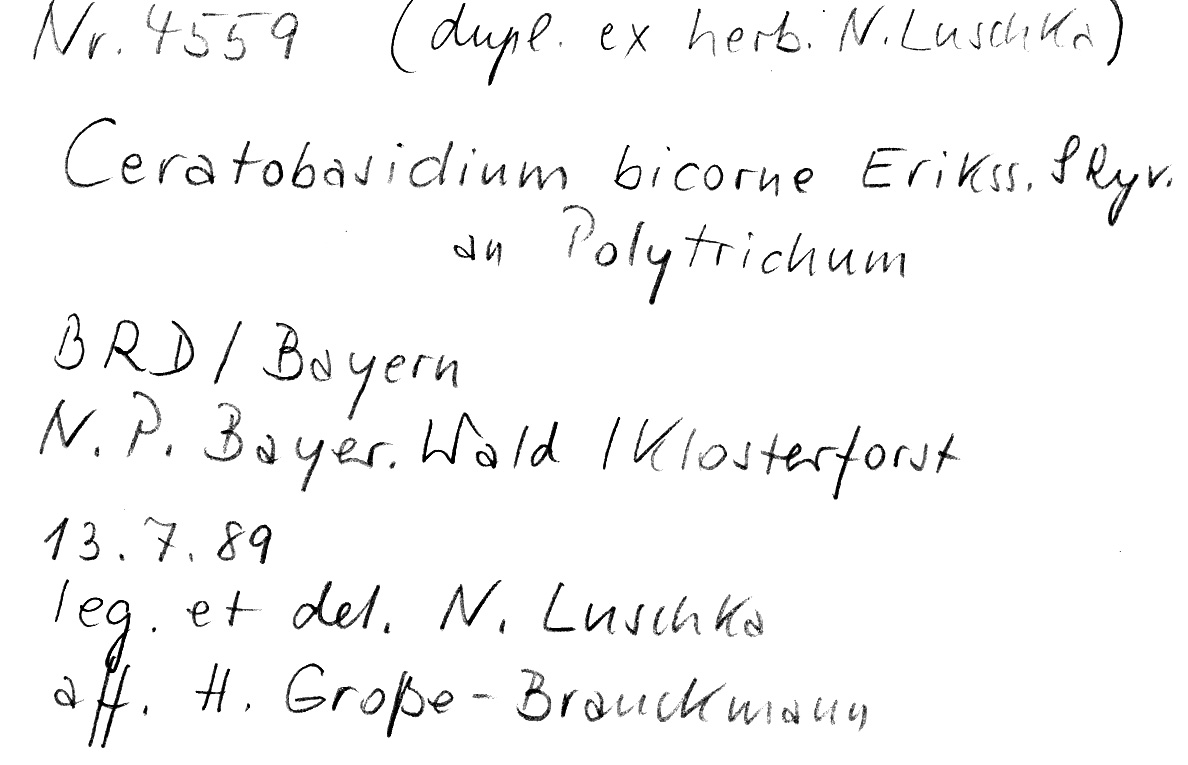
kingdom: Fungi
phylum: Basidiomycota
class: Agaricomycetes
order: Cantharellales
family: Ceratobasidiaceae
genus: Rhizoctonia
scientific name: Rhizoctonia bicornis
